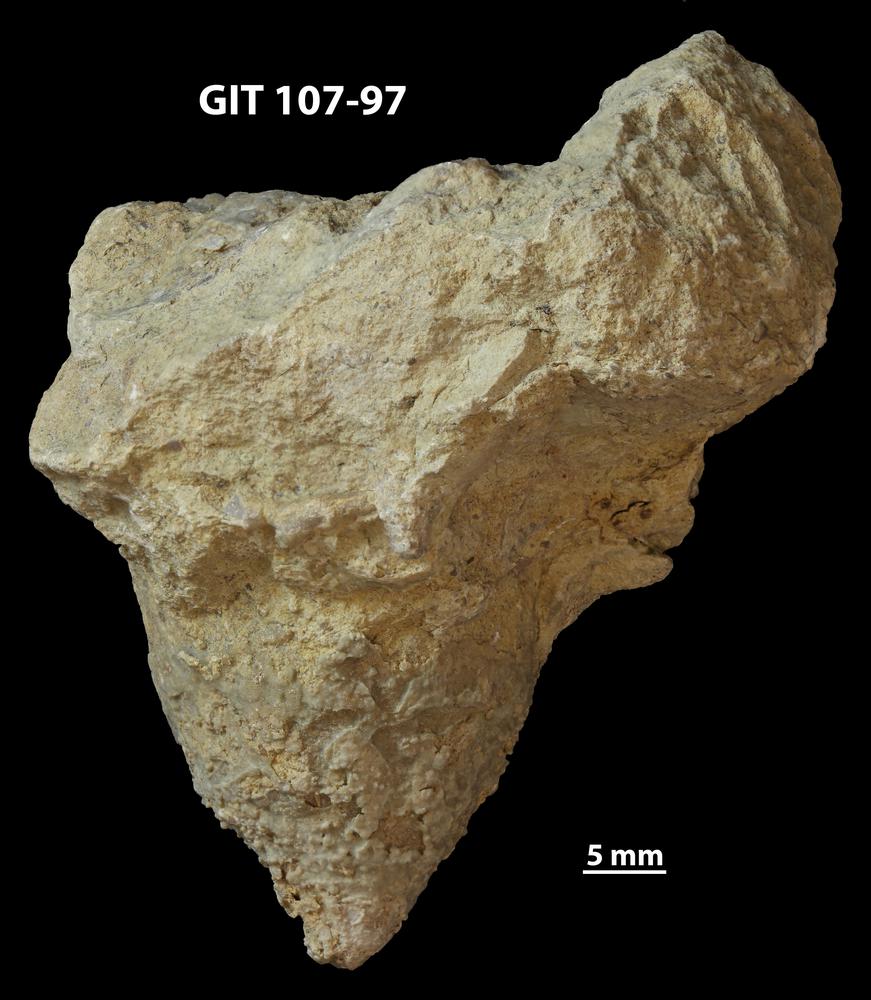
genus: Amphorichnus
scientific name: Amphorichnus
